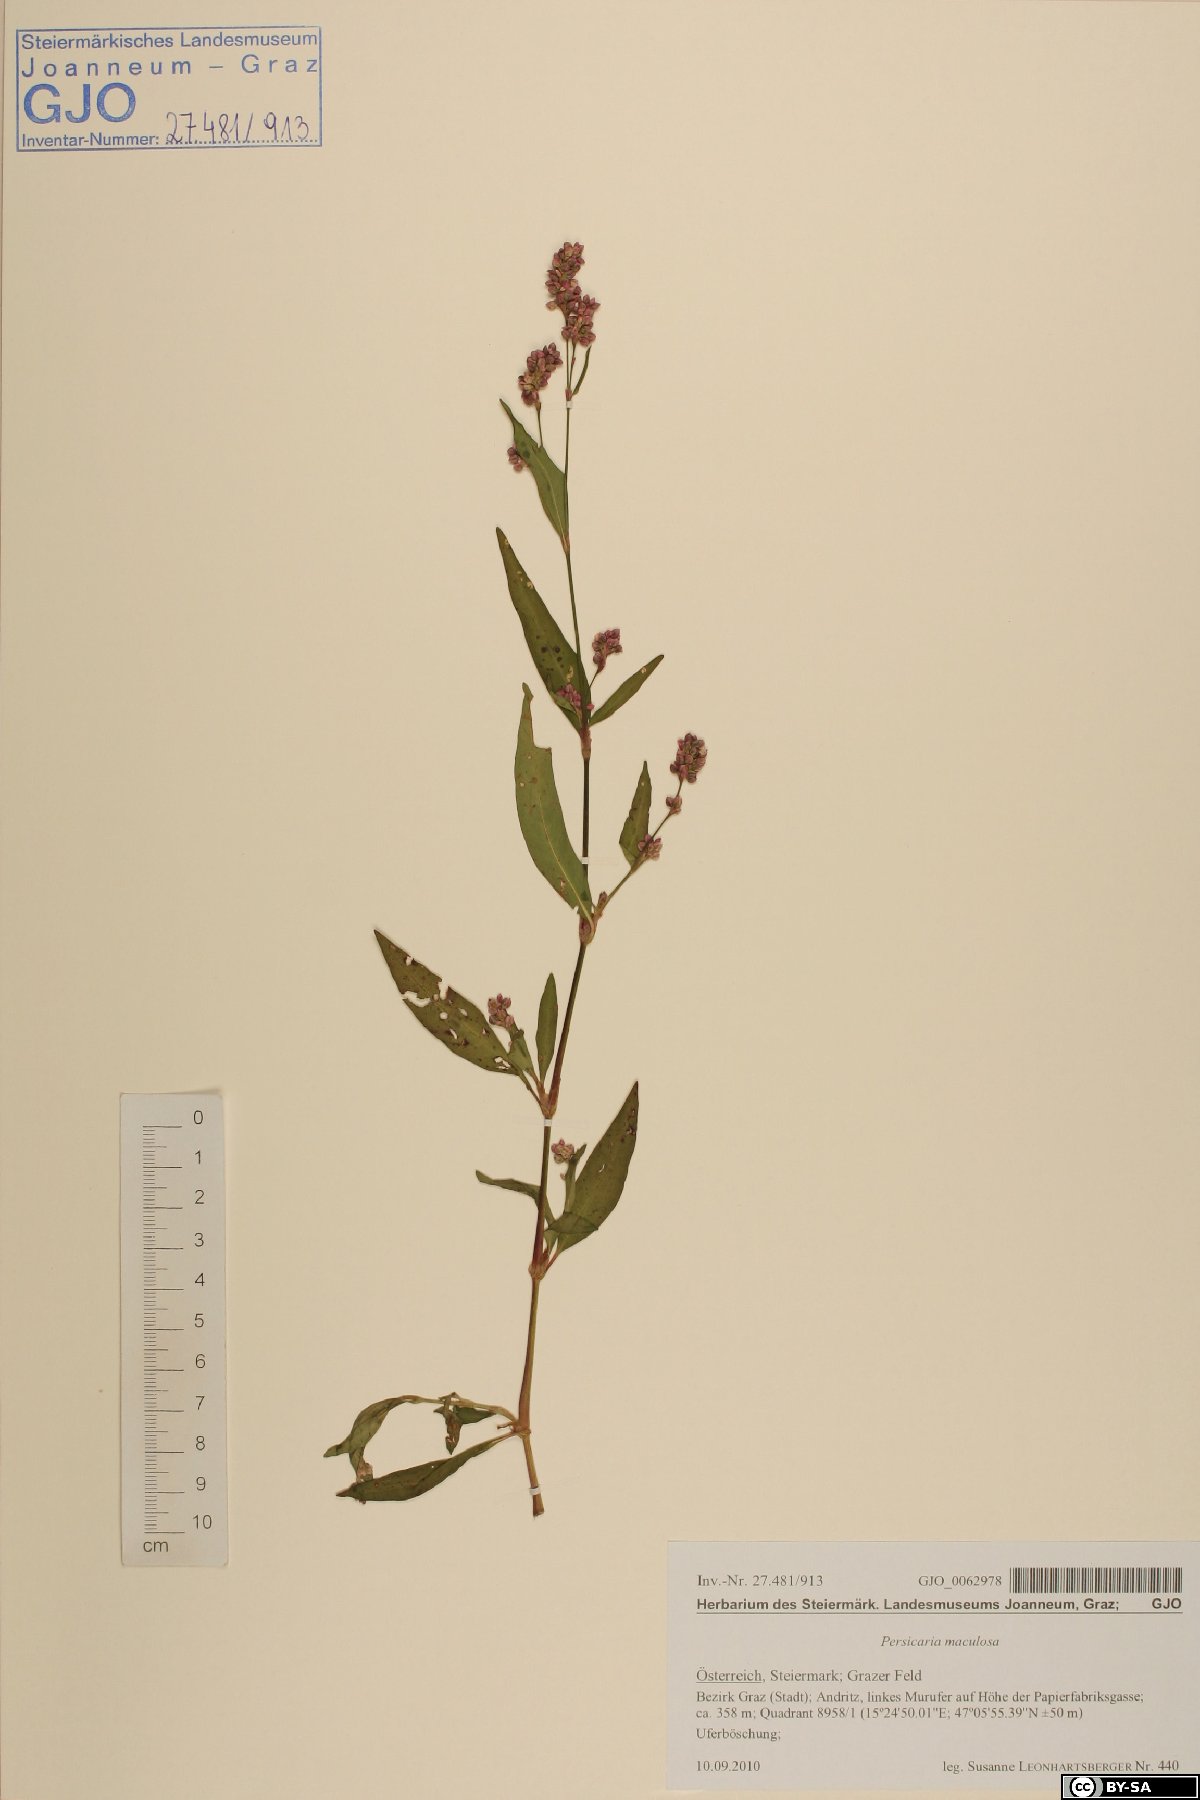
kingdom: Plantae
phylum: Tracheophyta
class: Magnoliopsida
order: Caryophyllales
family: Polygonaceae
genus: Persicaria
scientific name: Persicaria maculosa
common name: Redshank
